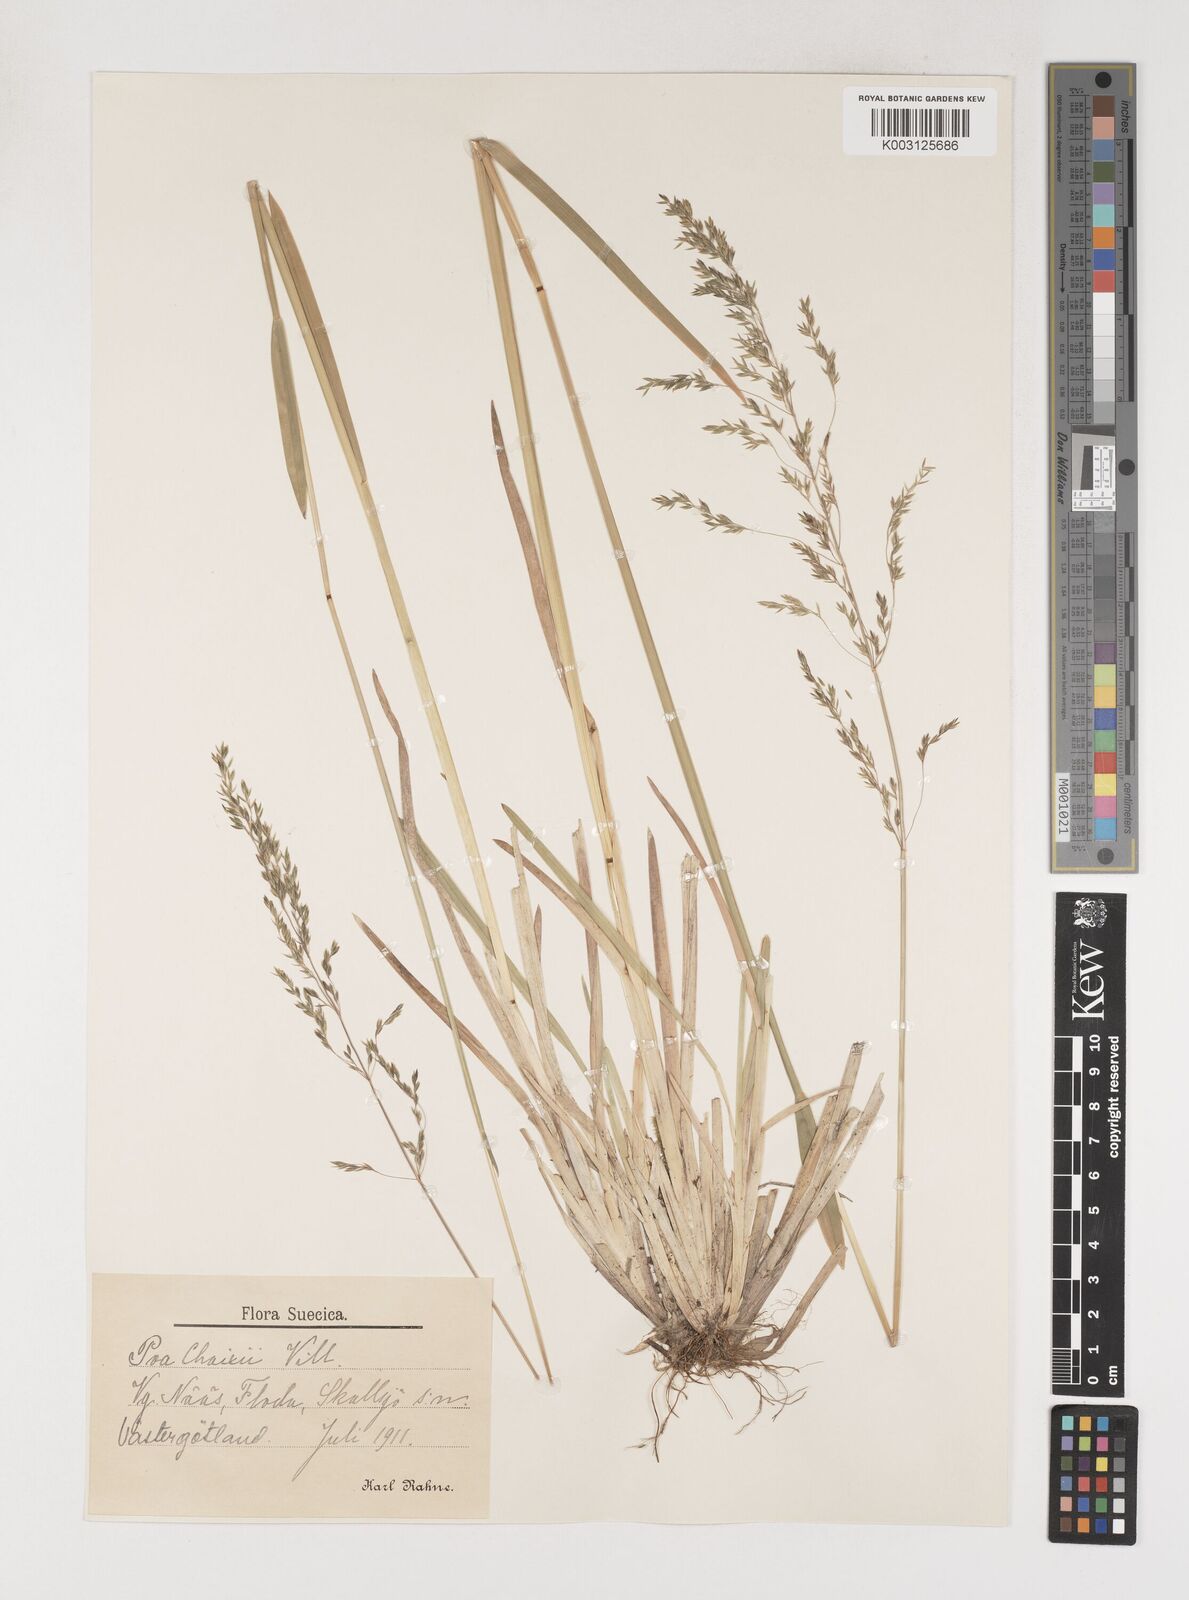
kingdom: Plantae
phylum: Tracheophyta
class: Liliopsida
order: Poales
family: Poaceae
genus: Poa
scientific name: Poa chaixii
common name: Broad-leaved meadow-grass
